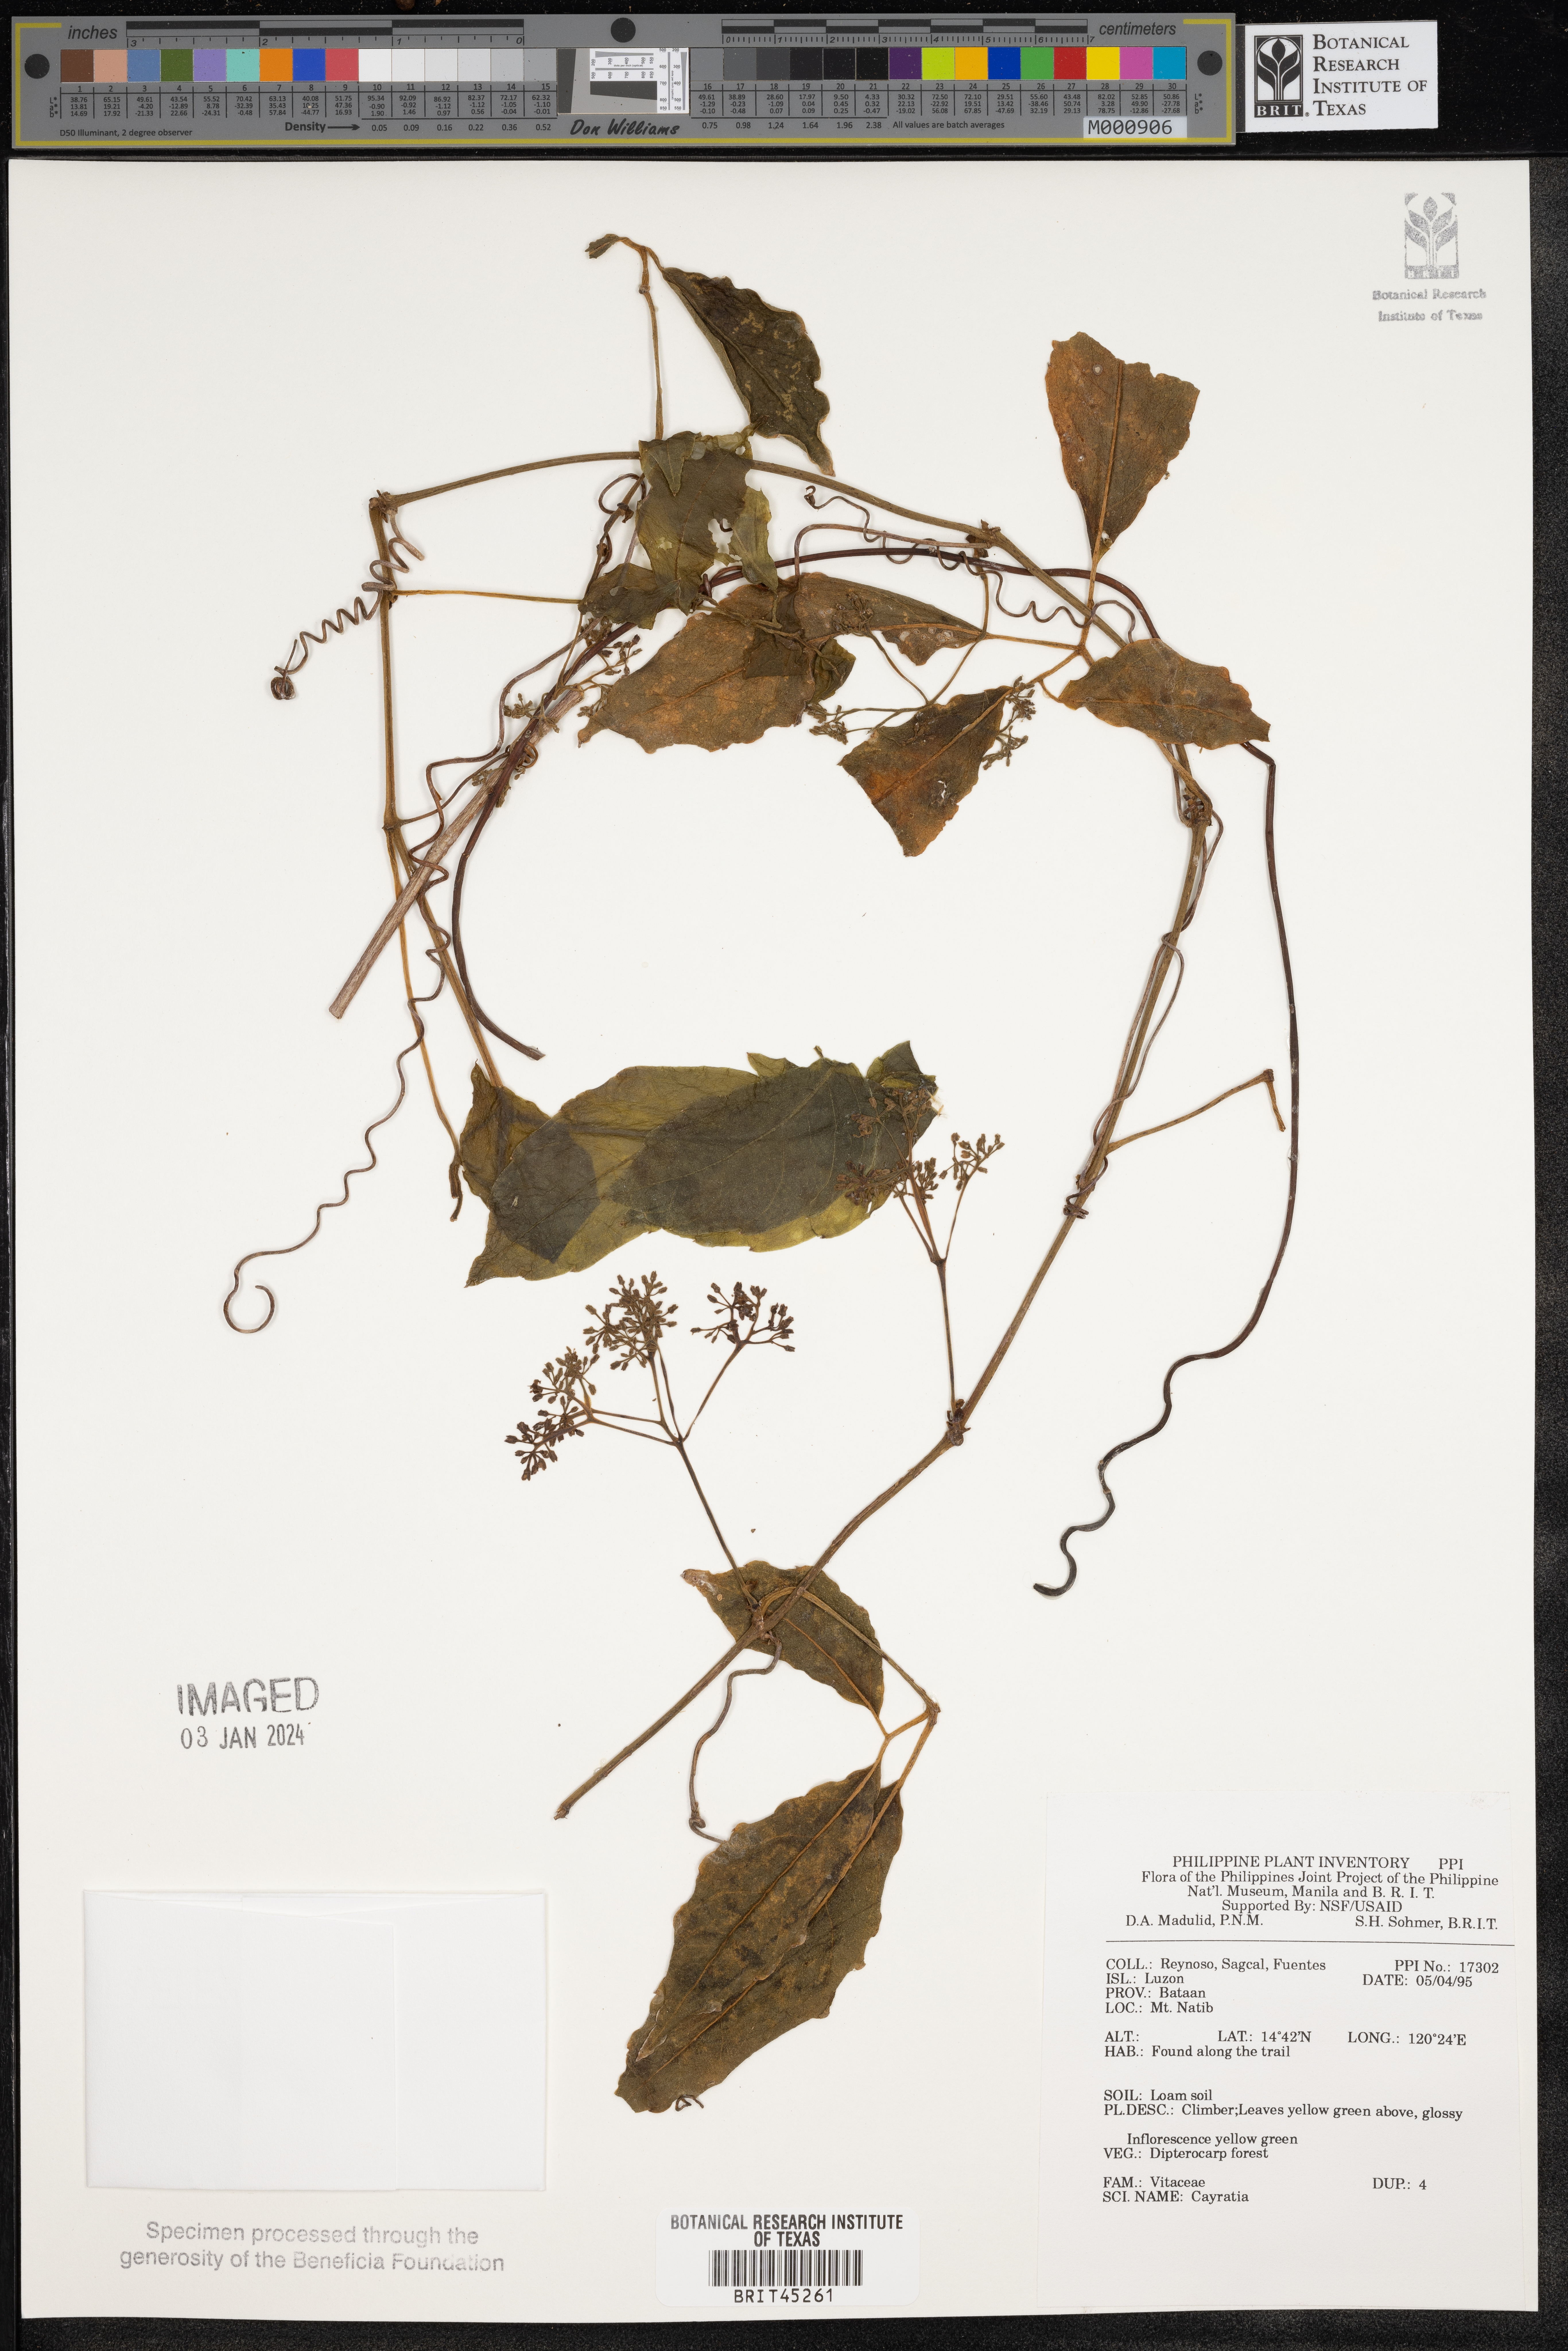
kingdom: Plantae
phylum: Tracheophyta
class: Magnoliopsida
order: Vitales
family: Vitaceae
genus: Cayratia
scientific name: Cayratia
